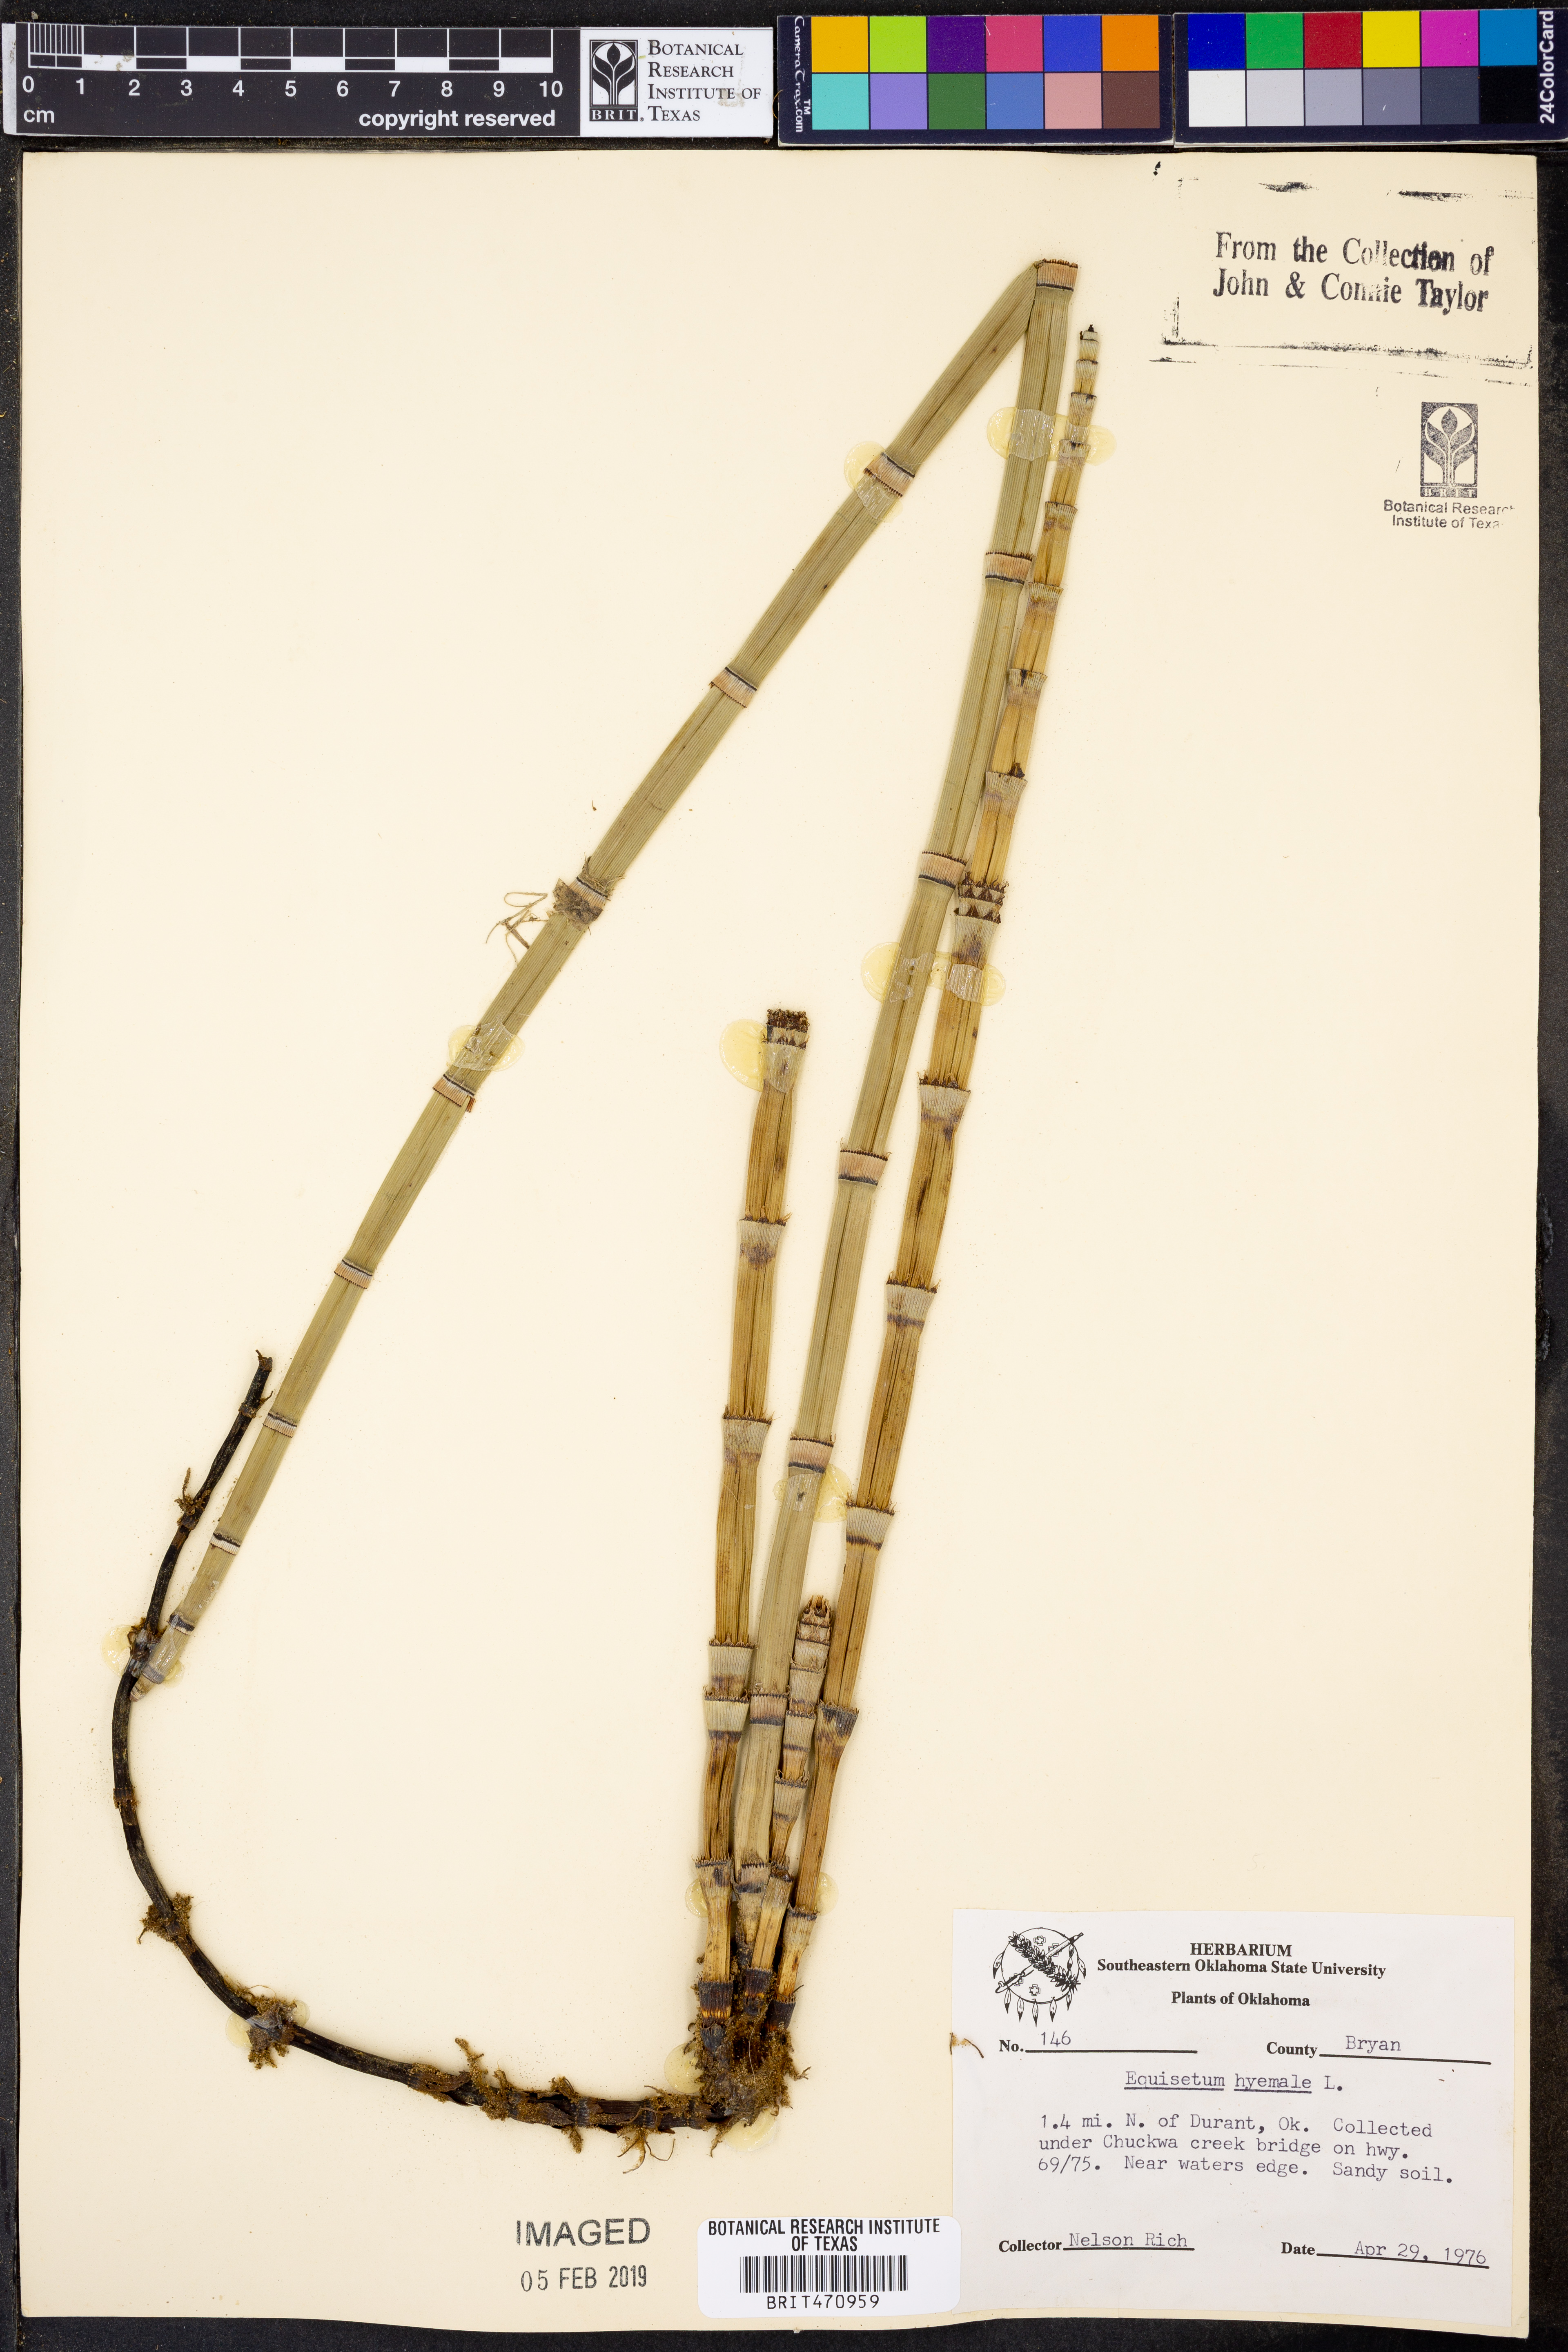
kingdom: Plantae
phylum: Tracheophyta
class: Polypodiopsida
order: Equisetales
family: Equisetaceae
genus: Equisetum
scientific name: Equisetum hyemale
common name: Rough horsetail
